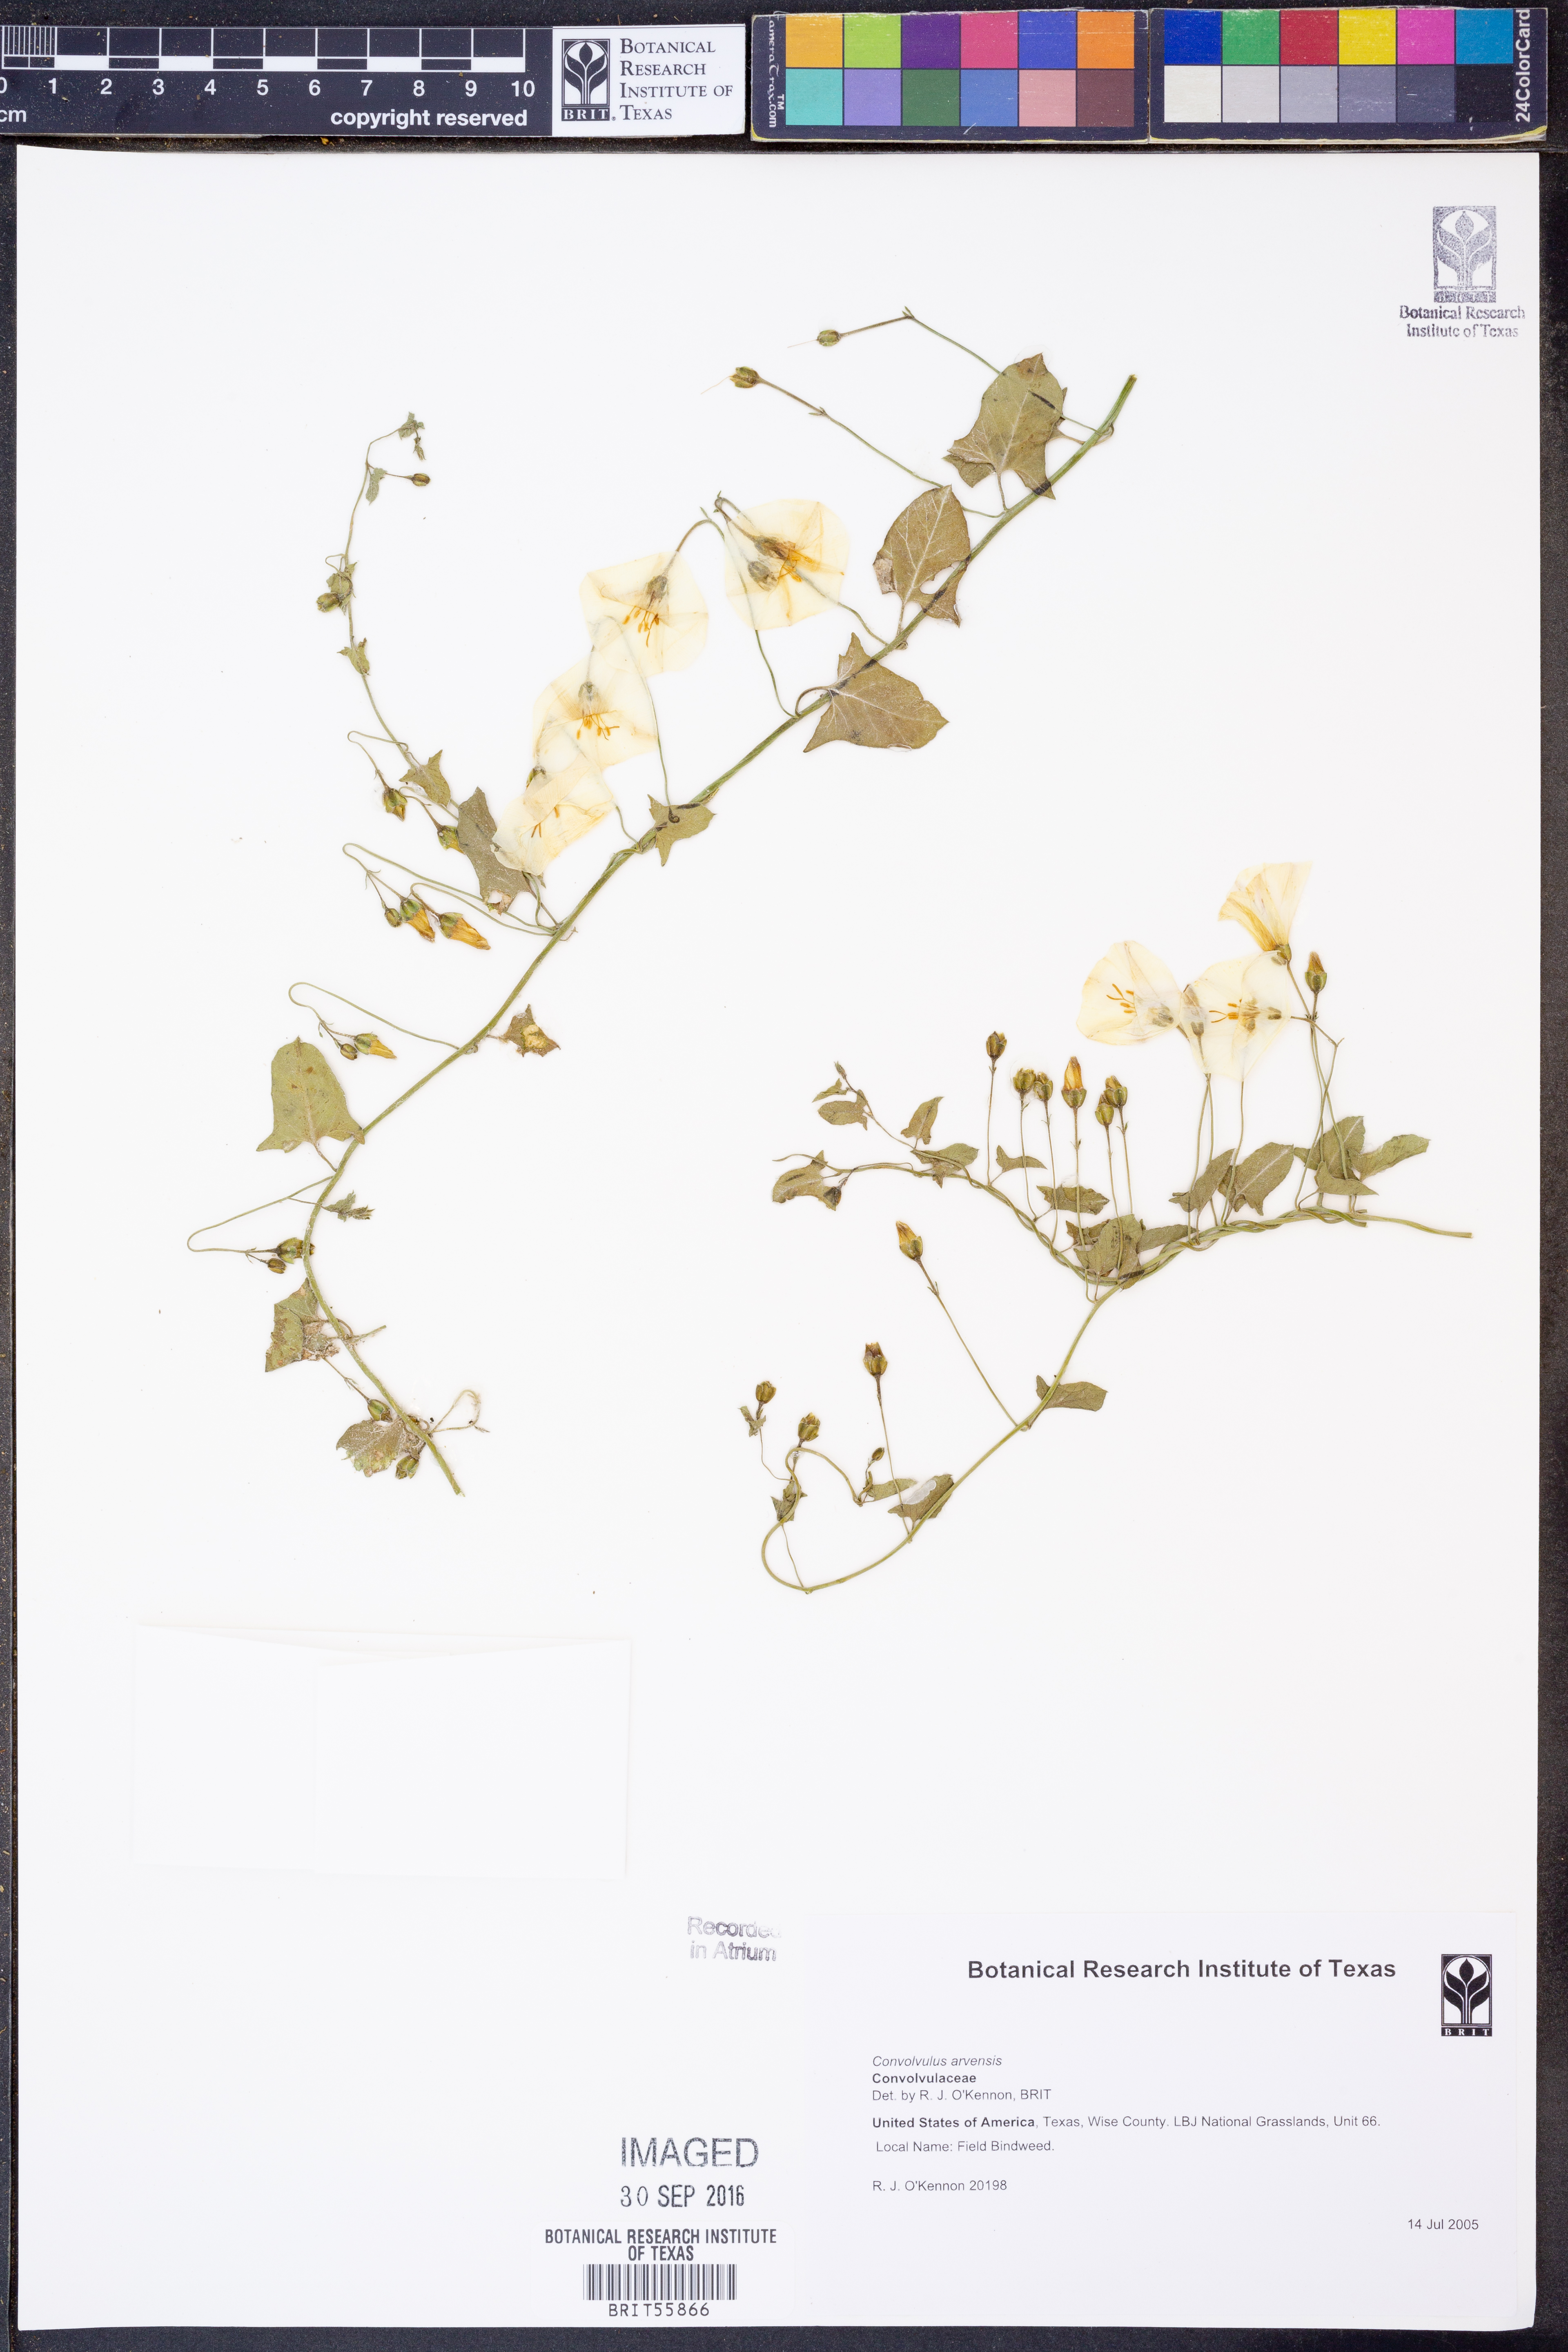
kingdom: Plantae
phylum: Tracheophyta
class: Magnoliopsida
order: Solanales
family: Convolvulaceae
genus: Convolvulus
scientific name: Convolvulus arvensis
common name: Field bindweed
